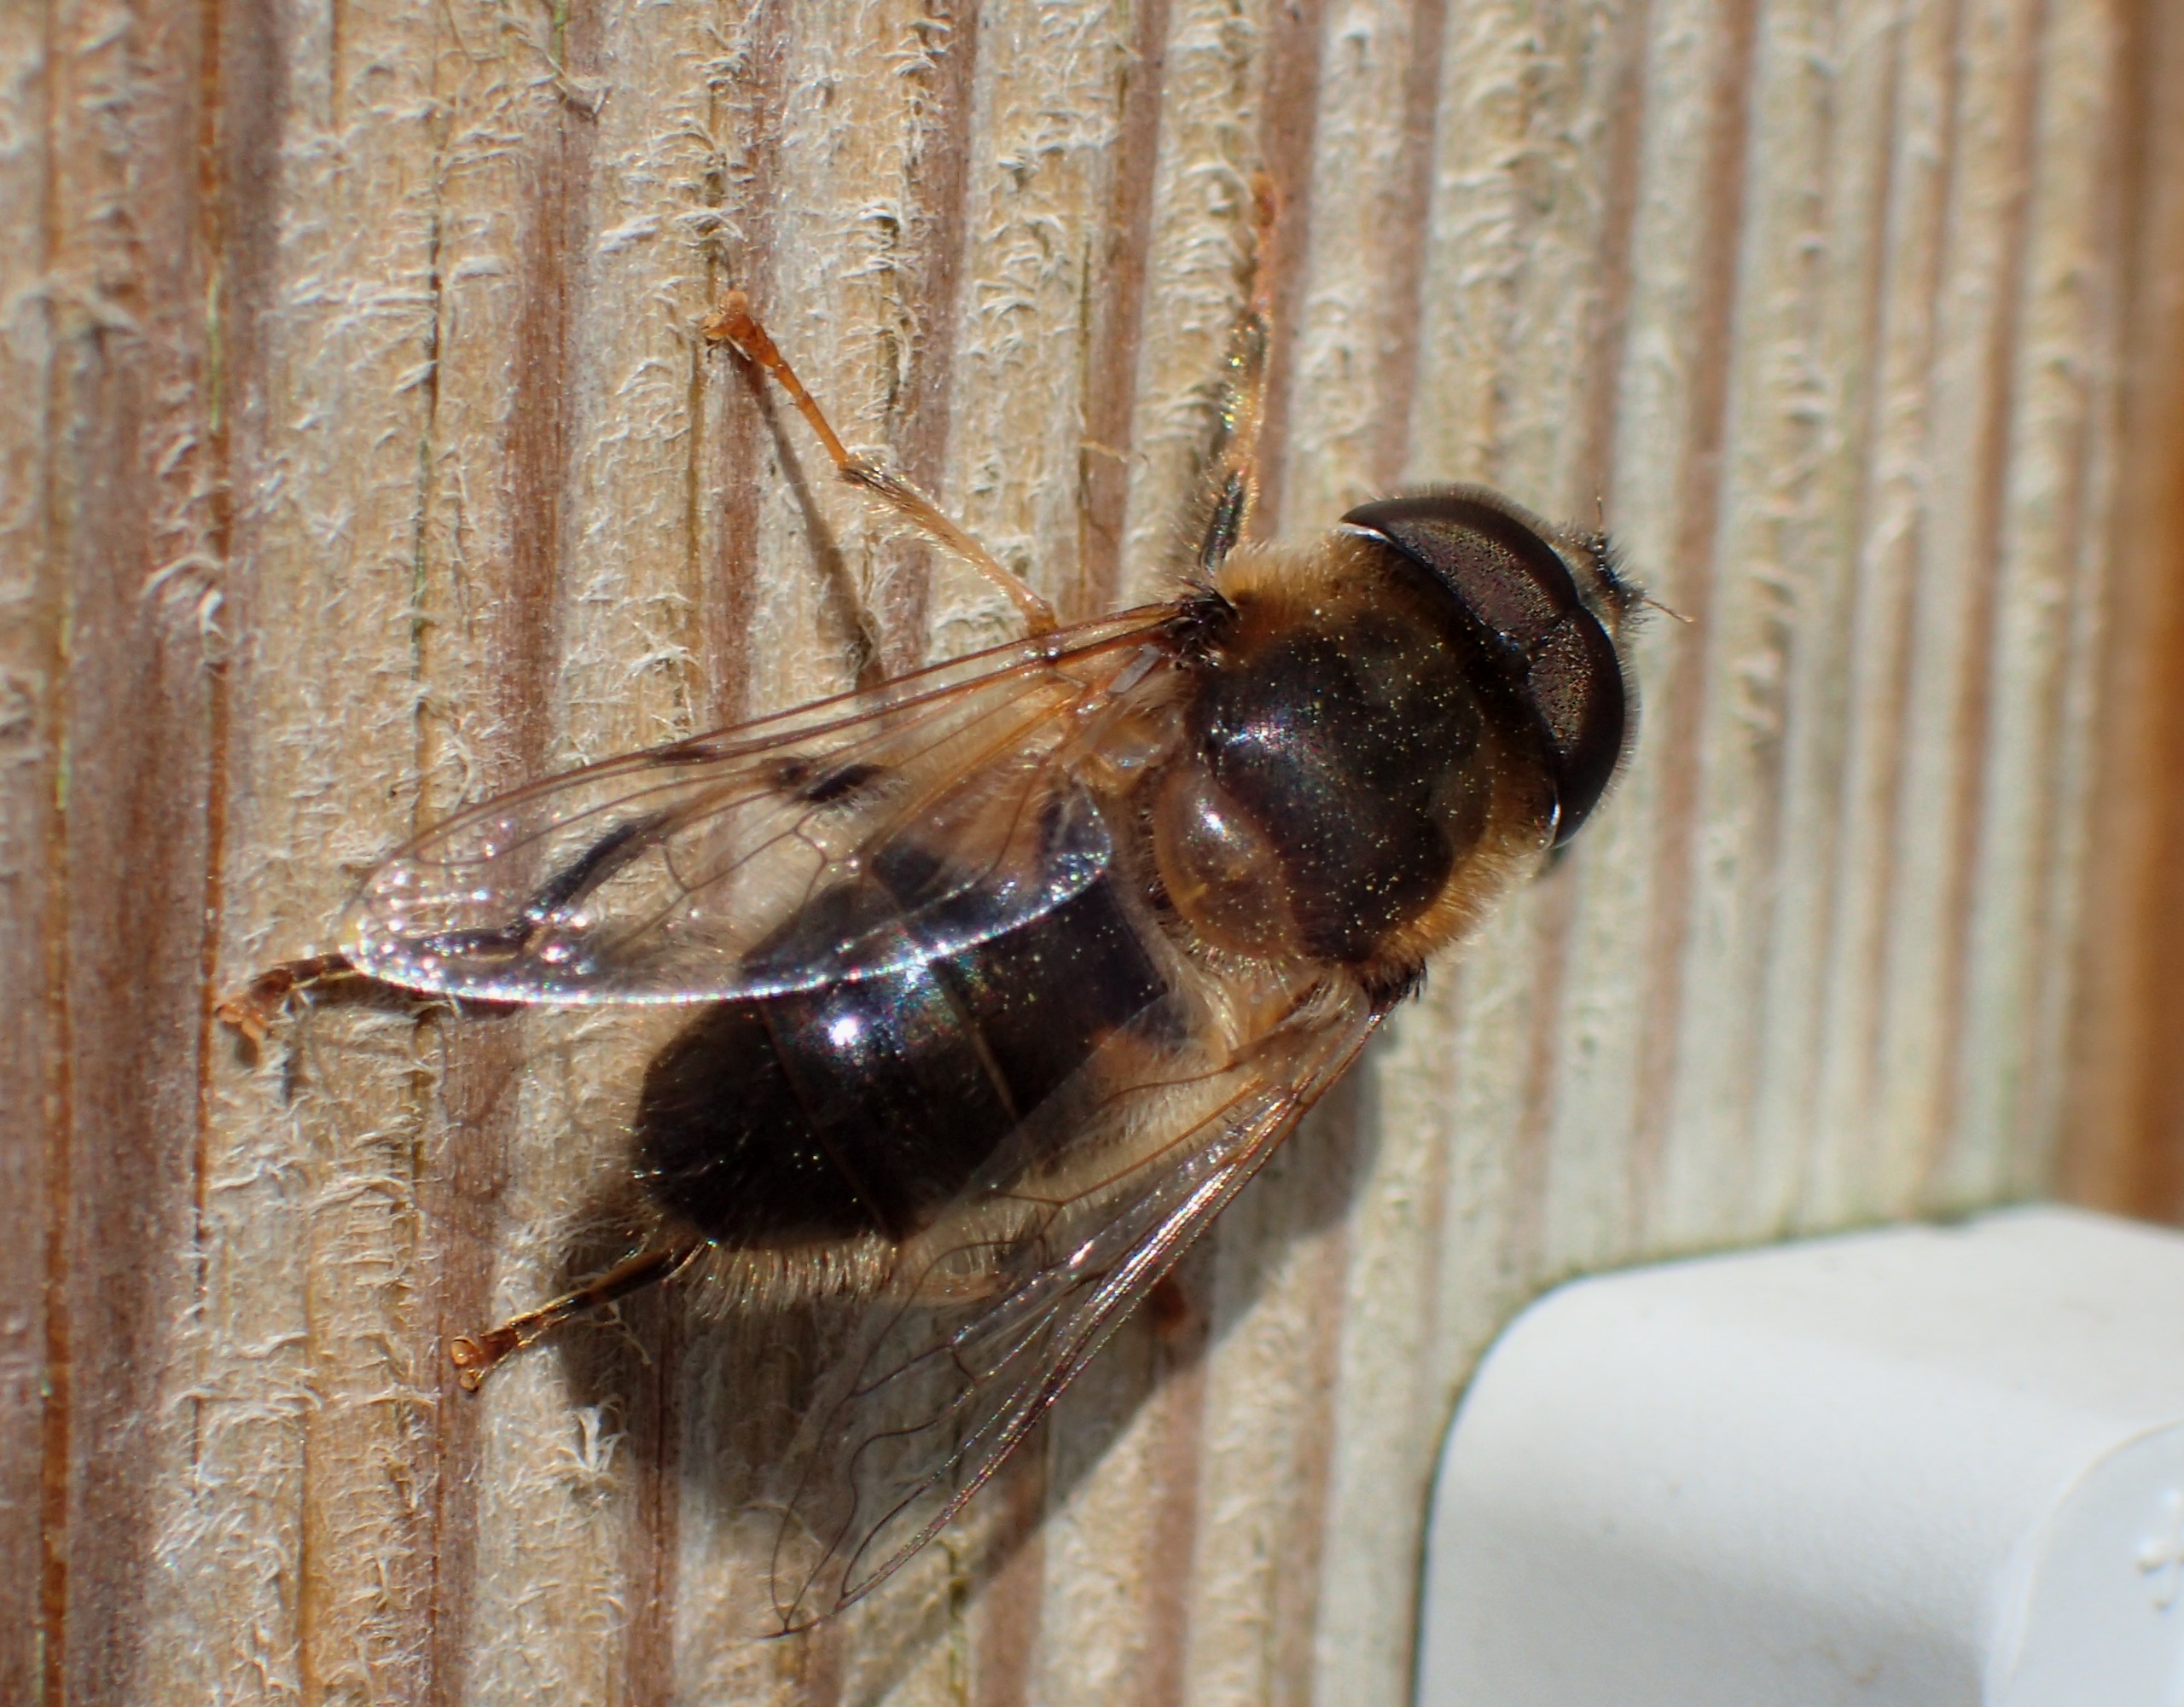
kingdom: Animalia
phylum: Arthropoda
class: Insecta
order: Diptera
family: Syrphidae
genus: Eristalis
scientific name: Eristalis pertinax
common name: Gulfodet dyndflue
